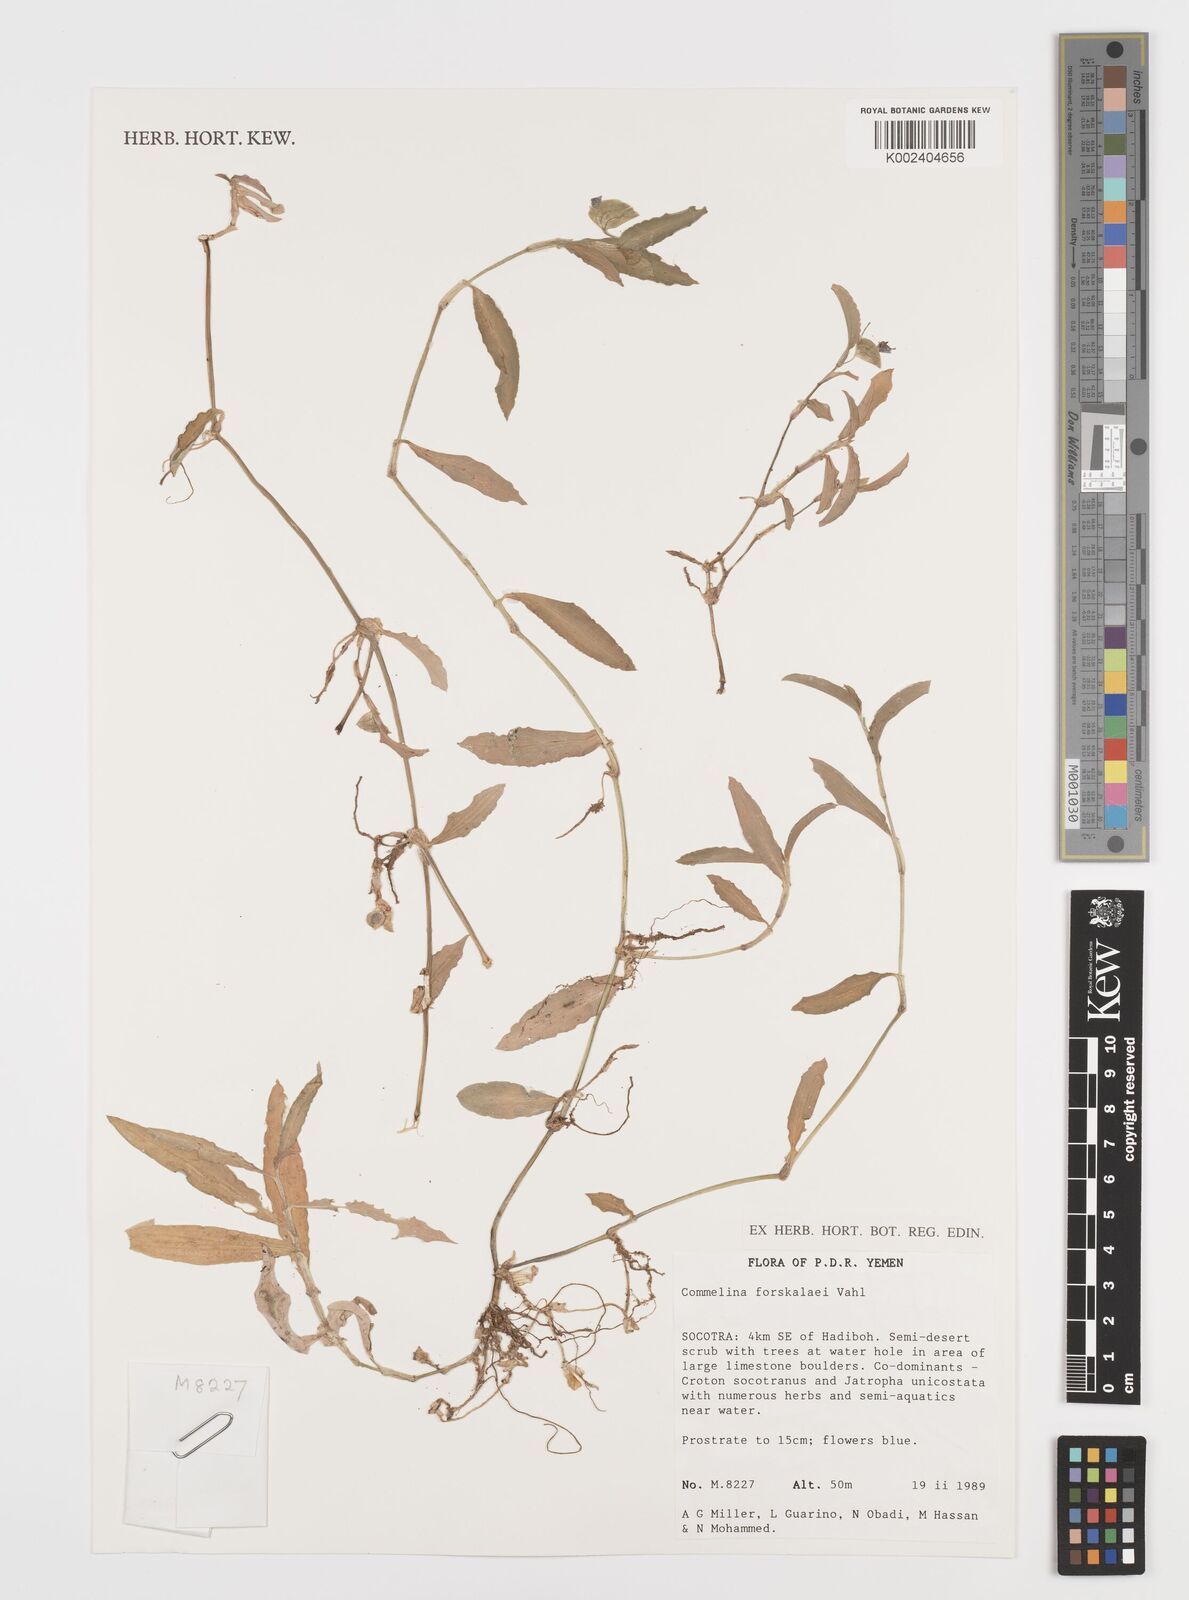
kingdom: Plantae
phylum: Tracheophyta
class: Liliopsida
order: Commelinales
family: Commelinaceae
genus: Commelina
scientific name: Commelina forskaolii
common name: Rat's ear
